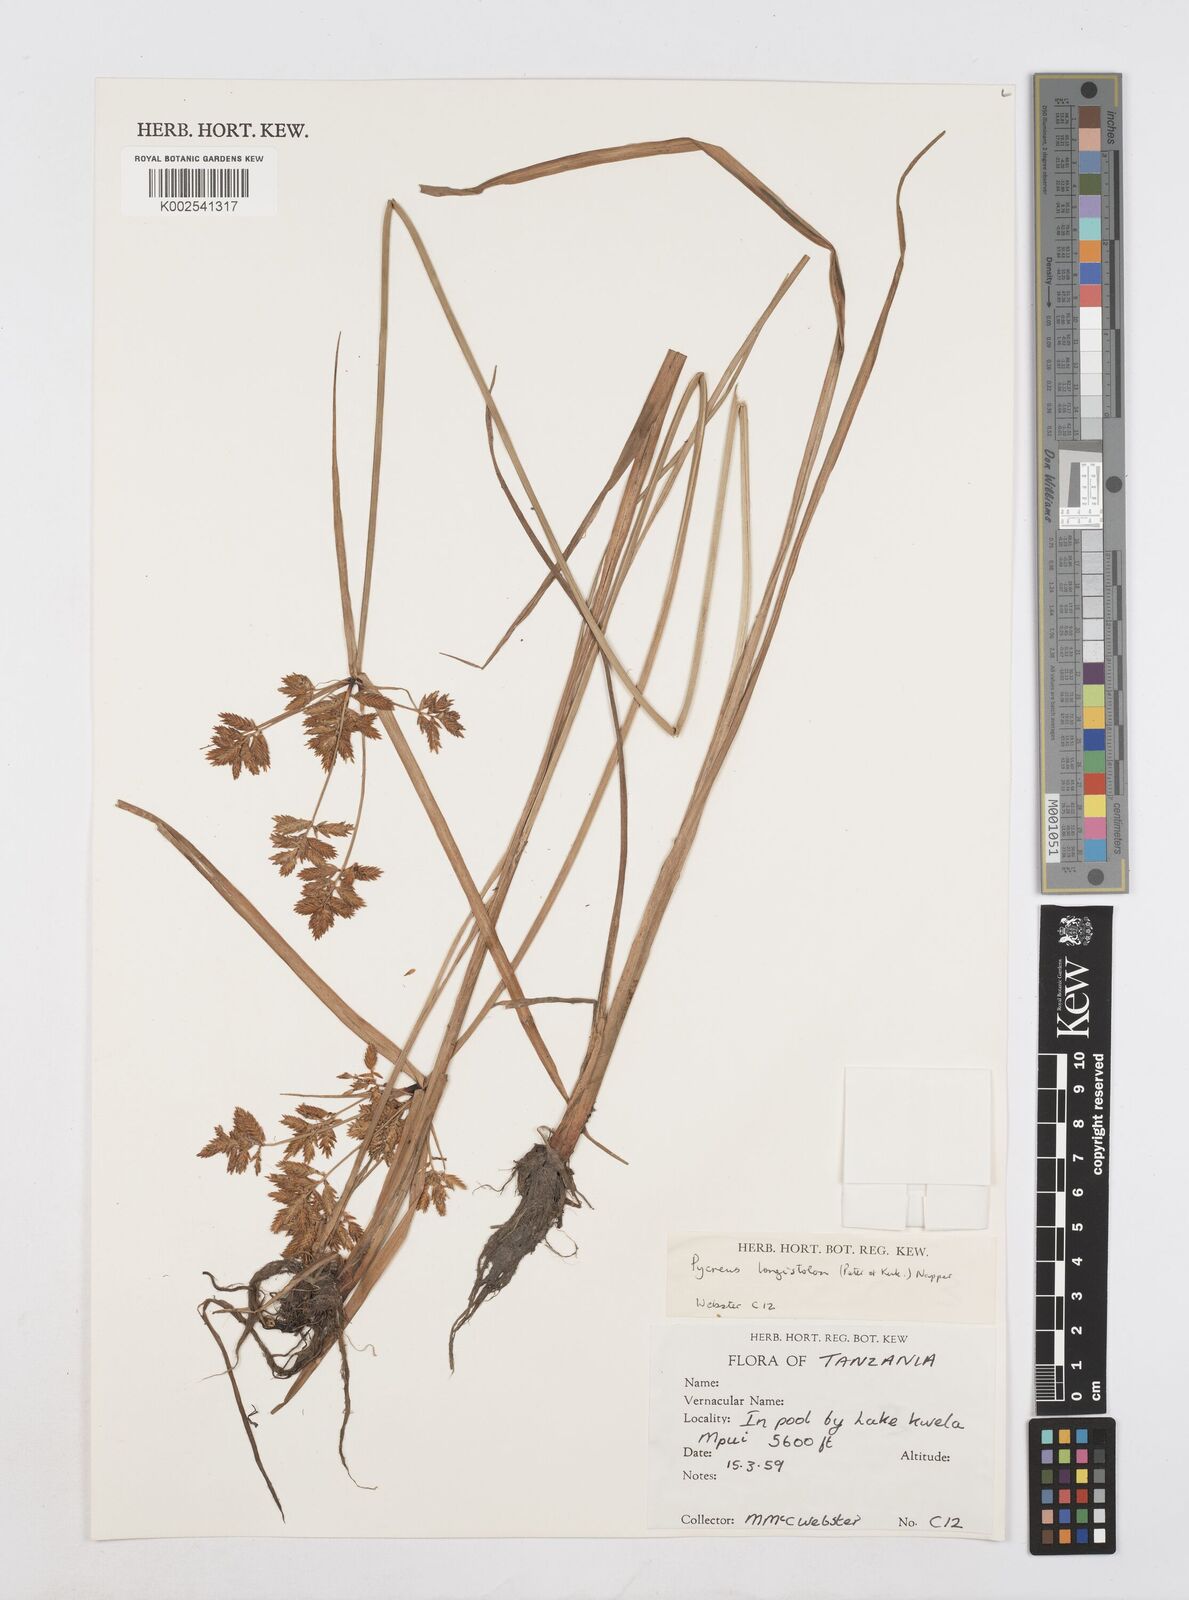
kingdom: Plantae
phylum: Tracheophyta
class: Liliopsida
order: Poales
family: Cyperaceae
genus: Cyperus
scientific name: Cyperus chrysanthus
